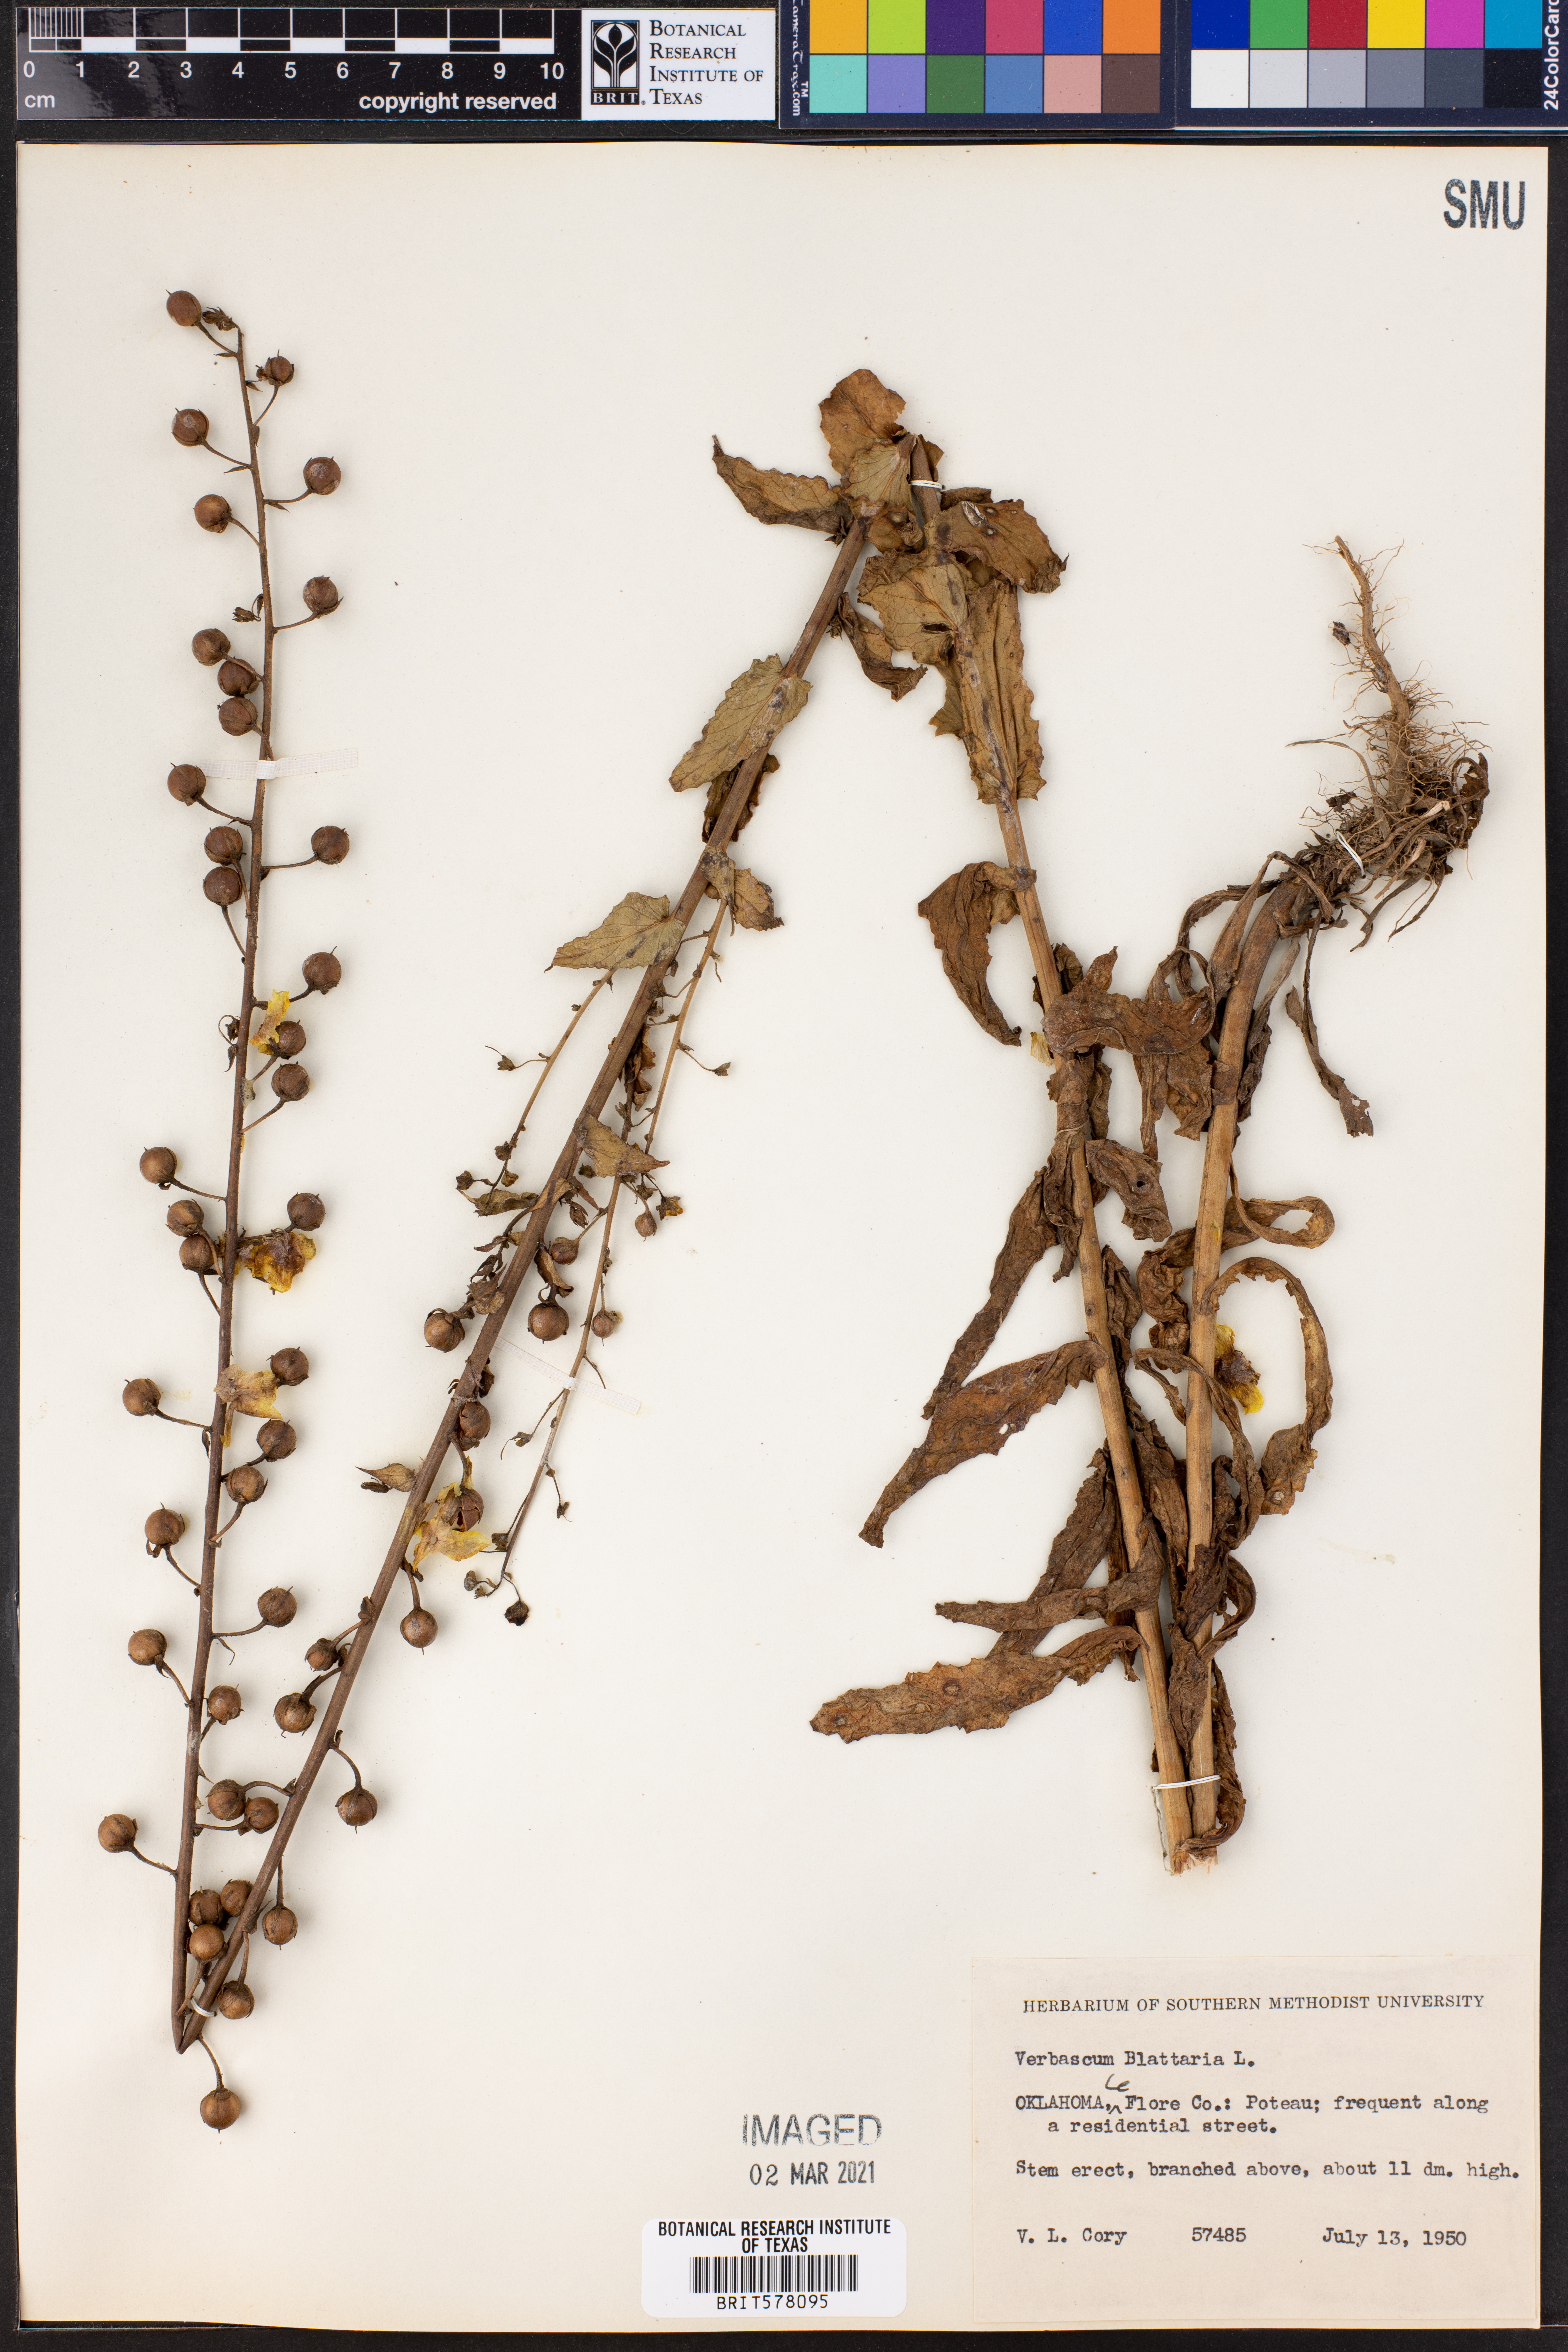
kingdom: Plantae
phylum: Tracheophyta
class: Magnoliopsida
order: Lamiales
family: Scrophulariaceae
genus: Verbascum
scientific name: Verbascum blattaria
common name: Moth mullein
